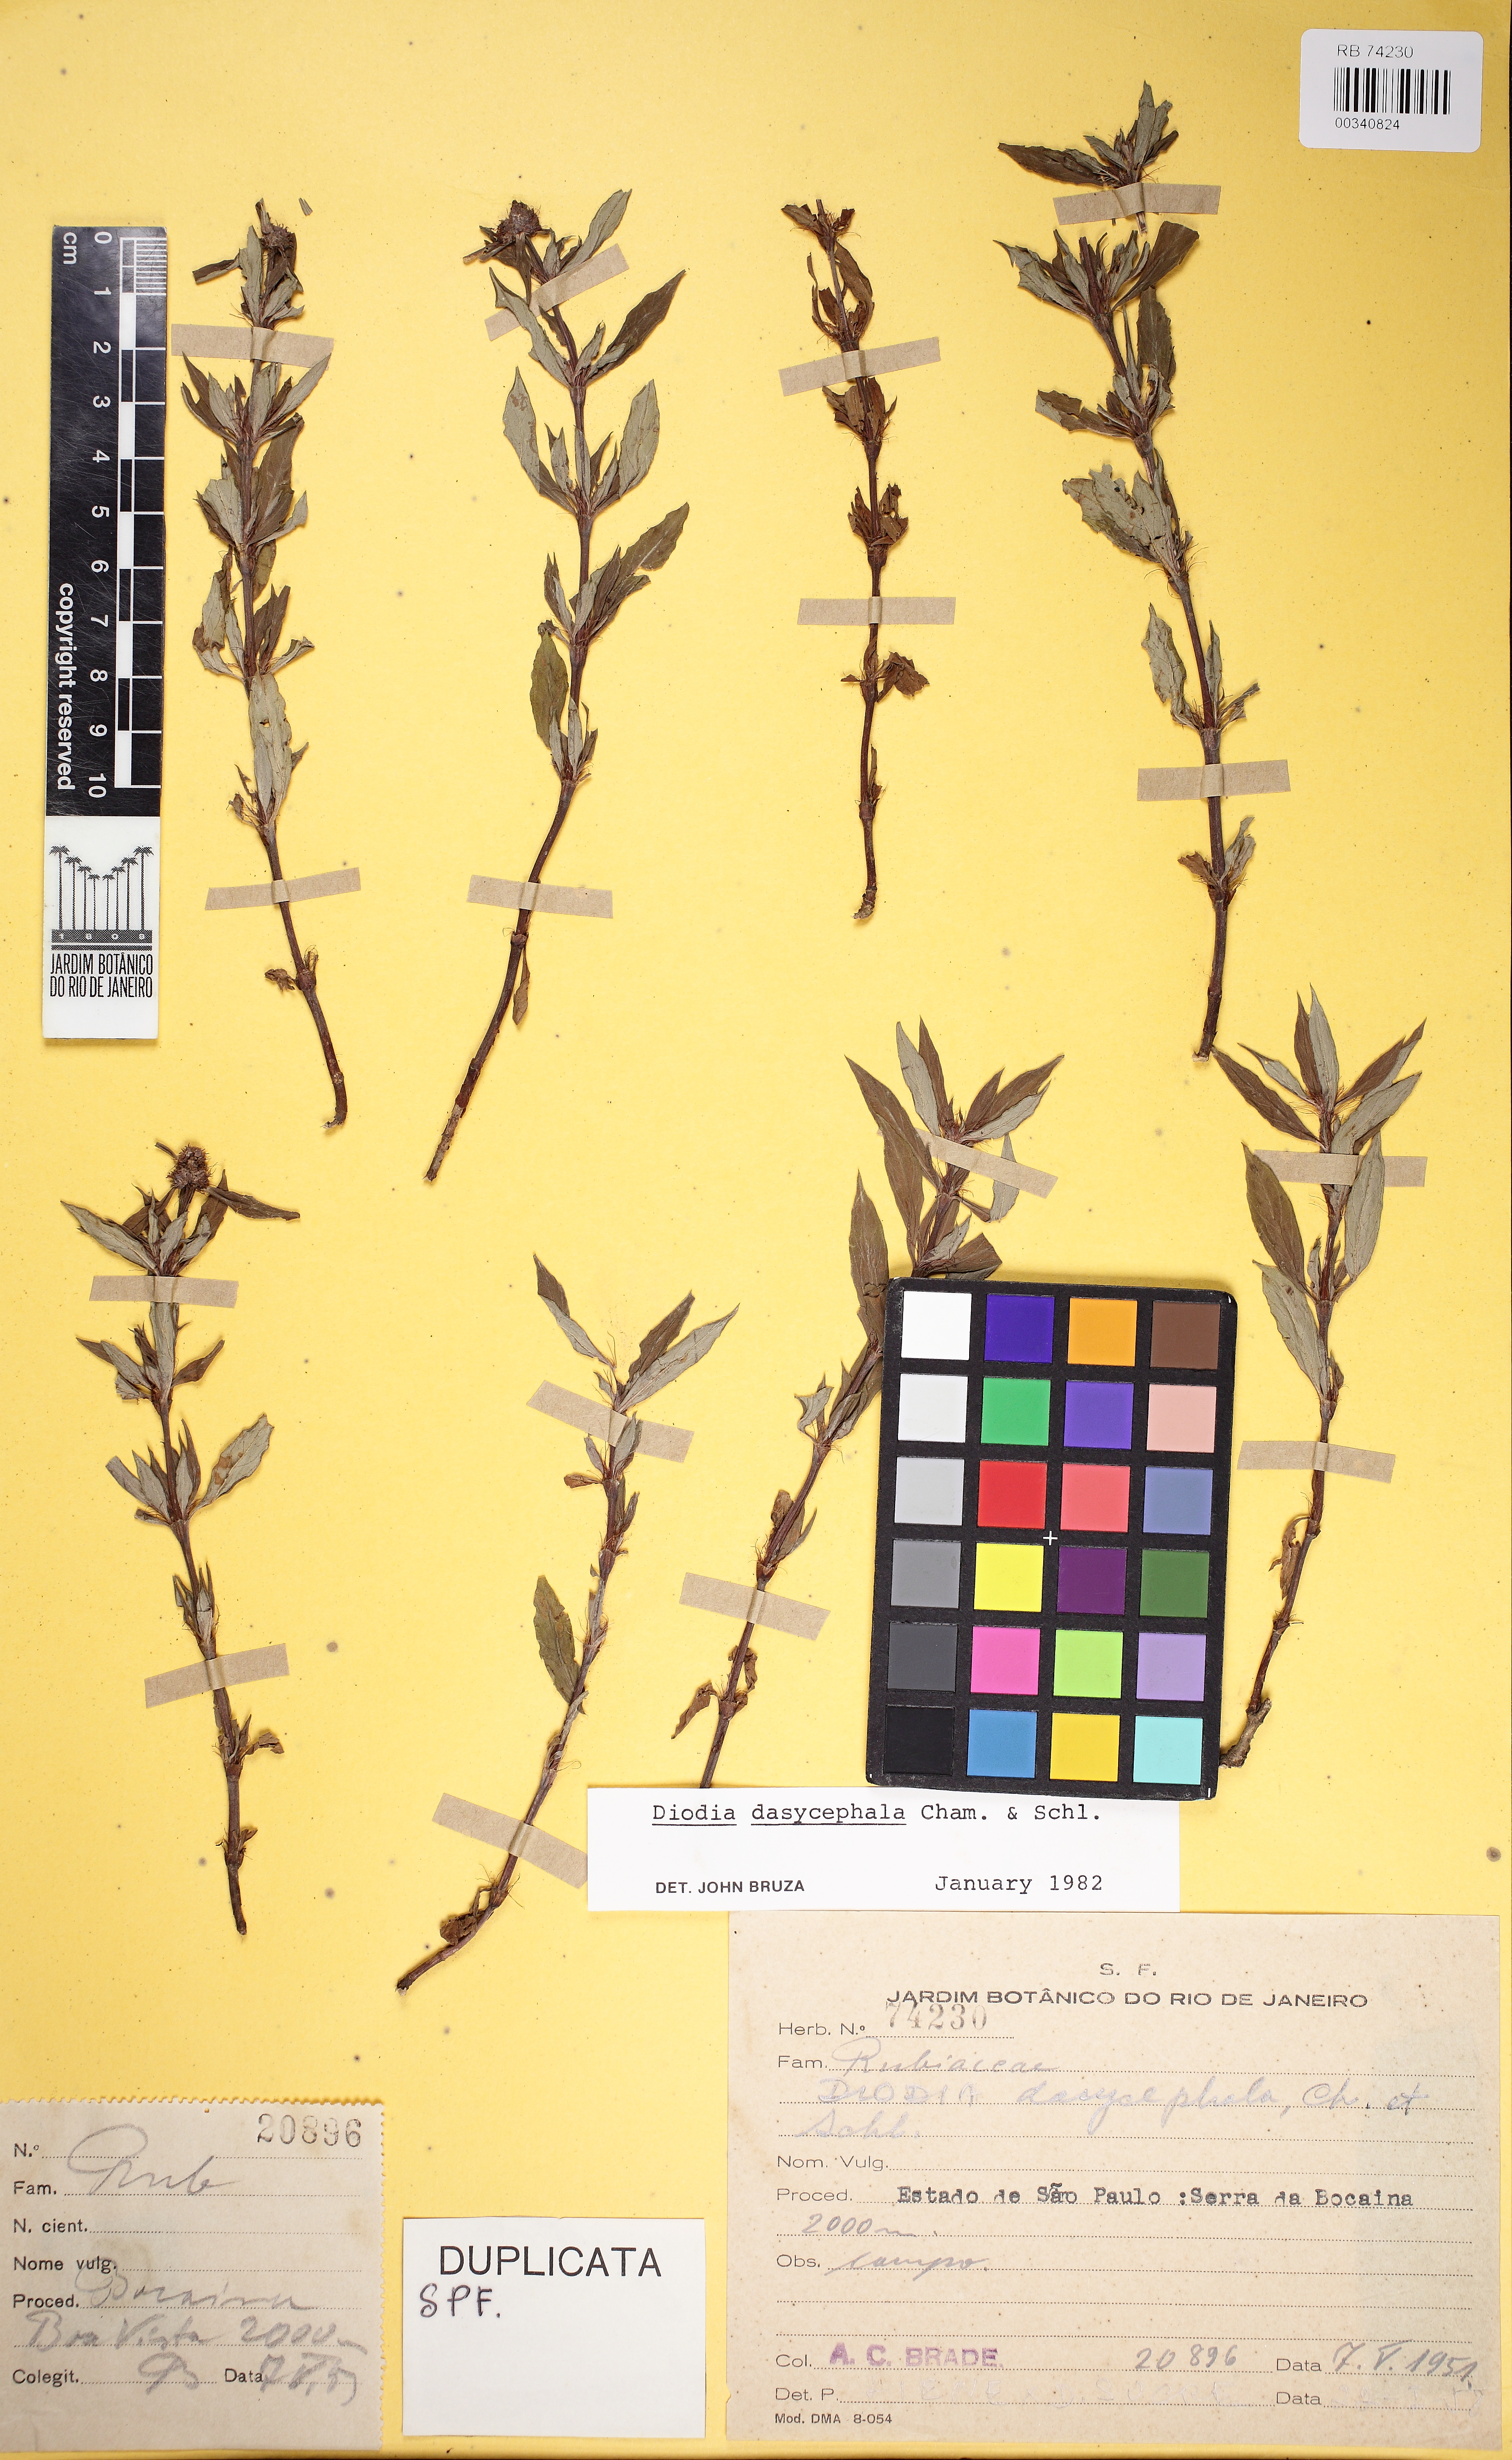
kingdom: Plantae
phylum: Tracheophyta
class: Magnoliopsida
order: Gentianales
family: Rubiaceae
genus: Spermacoce
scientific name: Spermacoce dasycephala
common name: False buttonweed
